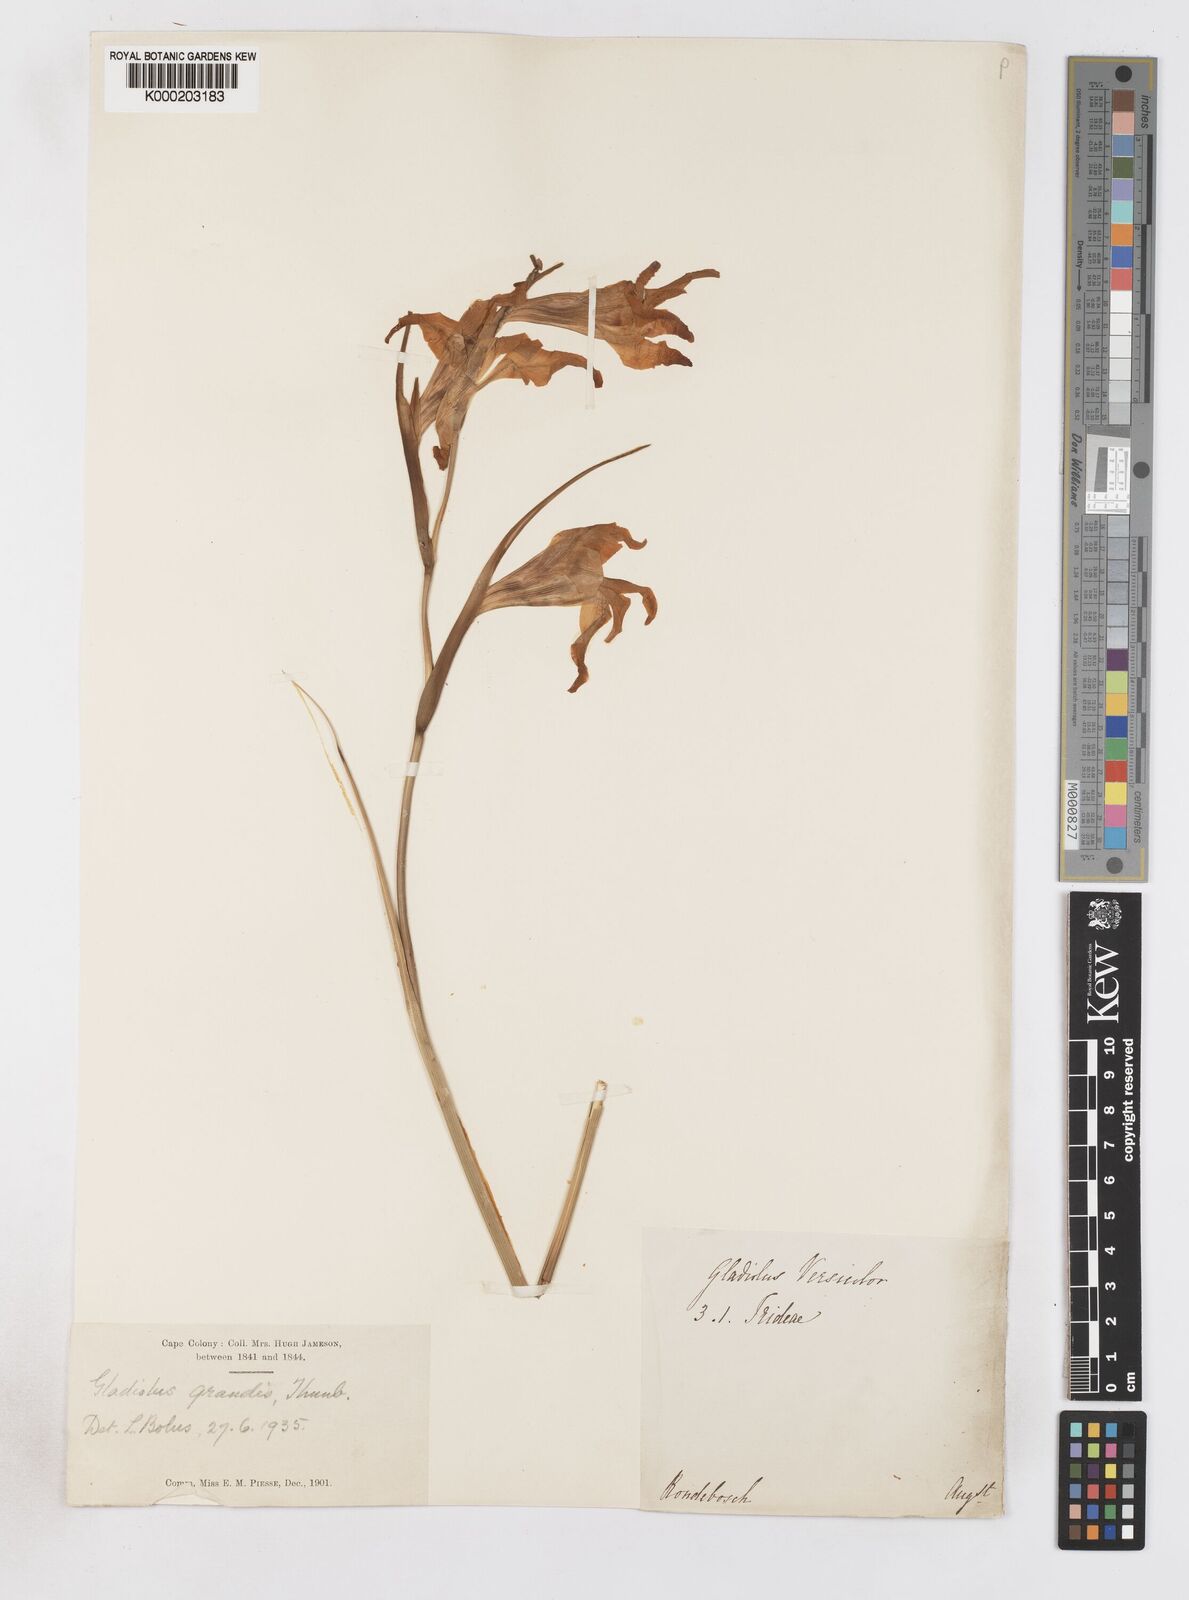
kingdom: Plantae
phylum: Tracheophyta
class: Liliopsida
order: Asparagales
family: Iridaceae
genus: Gladiolus
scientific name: Gladiolus liliaceus
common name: Large brown afrikaner
